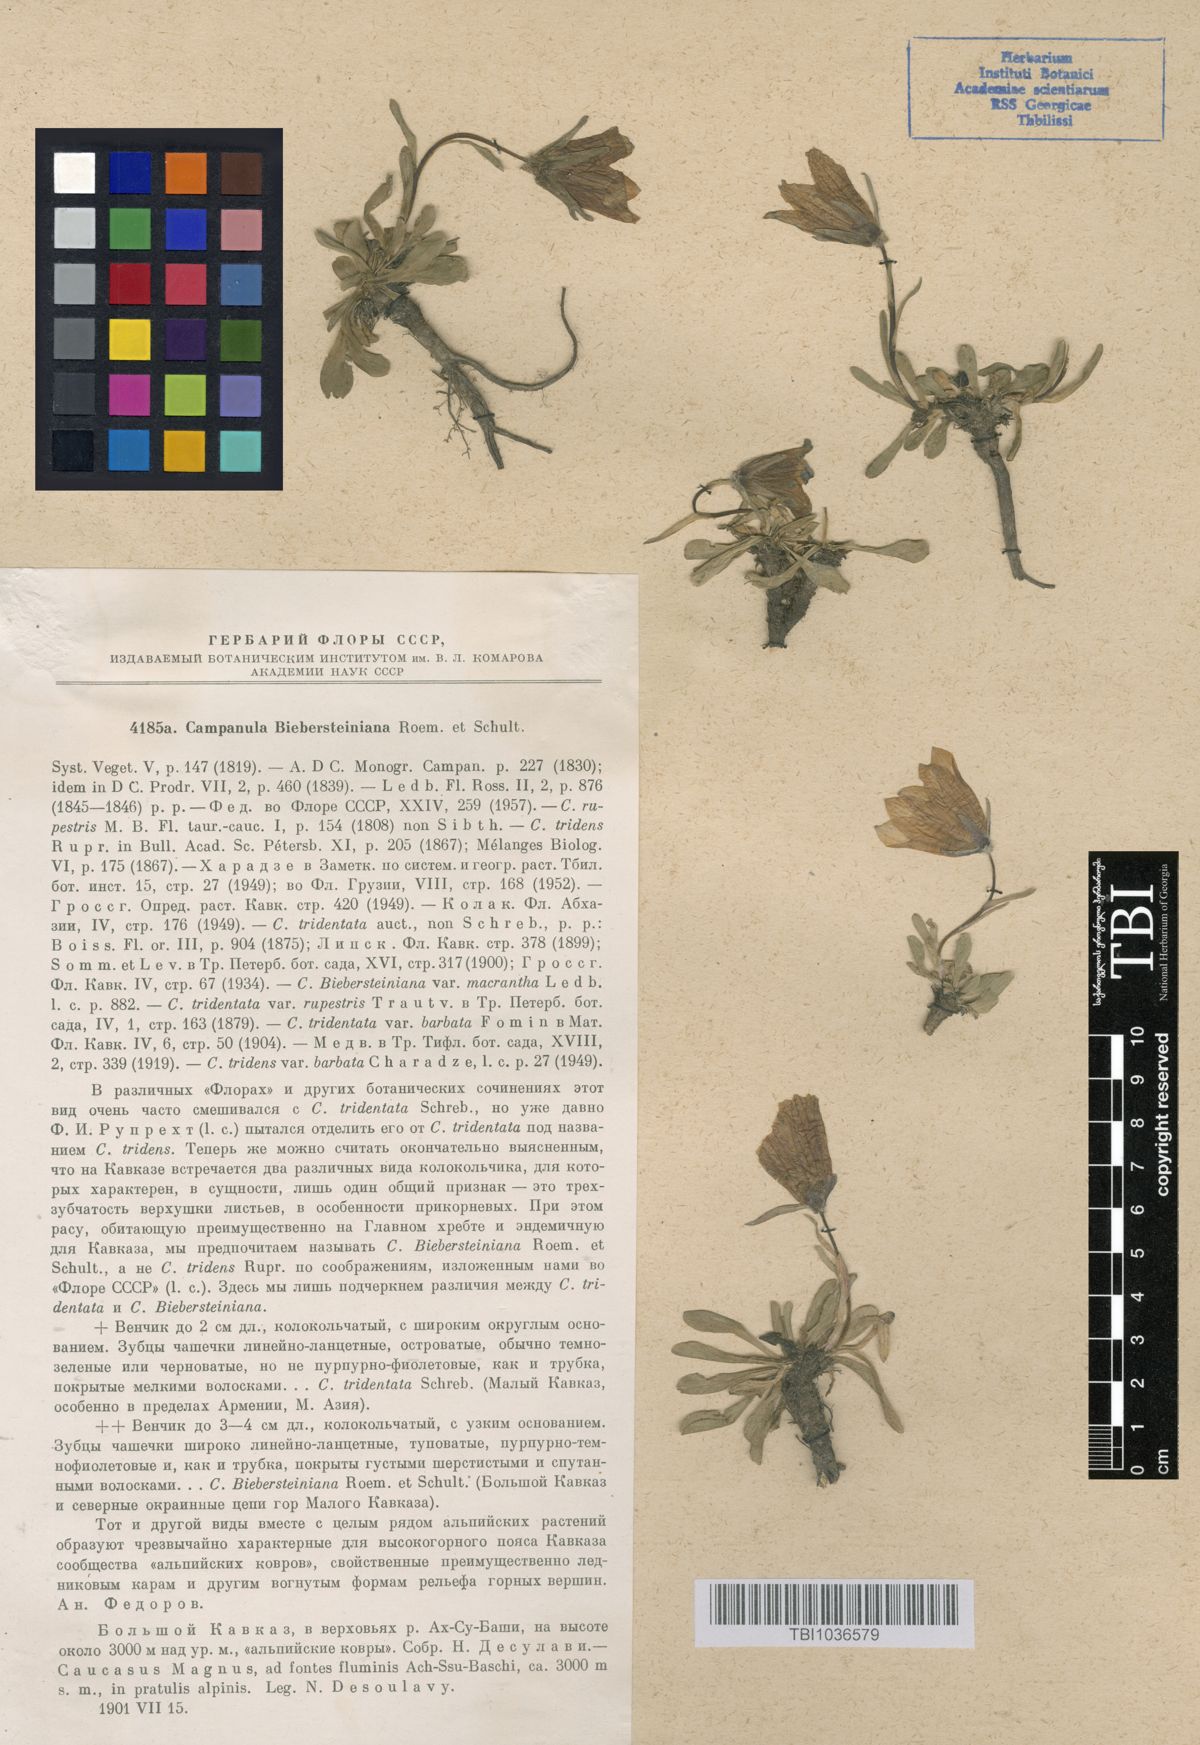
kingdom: Plantae
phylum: Tracheophyta
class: Magnoliopsida
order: Asterales
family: Campanulaceae
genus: Campanula
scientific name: Campanula tridentata
